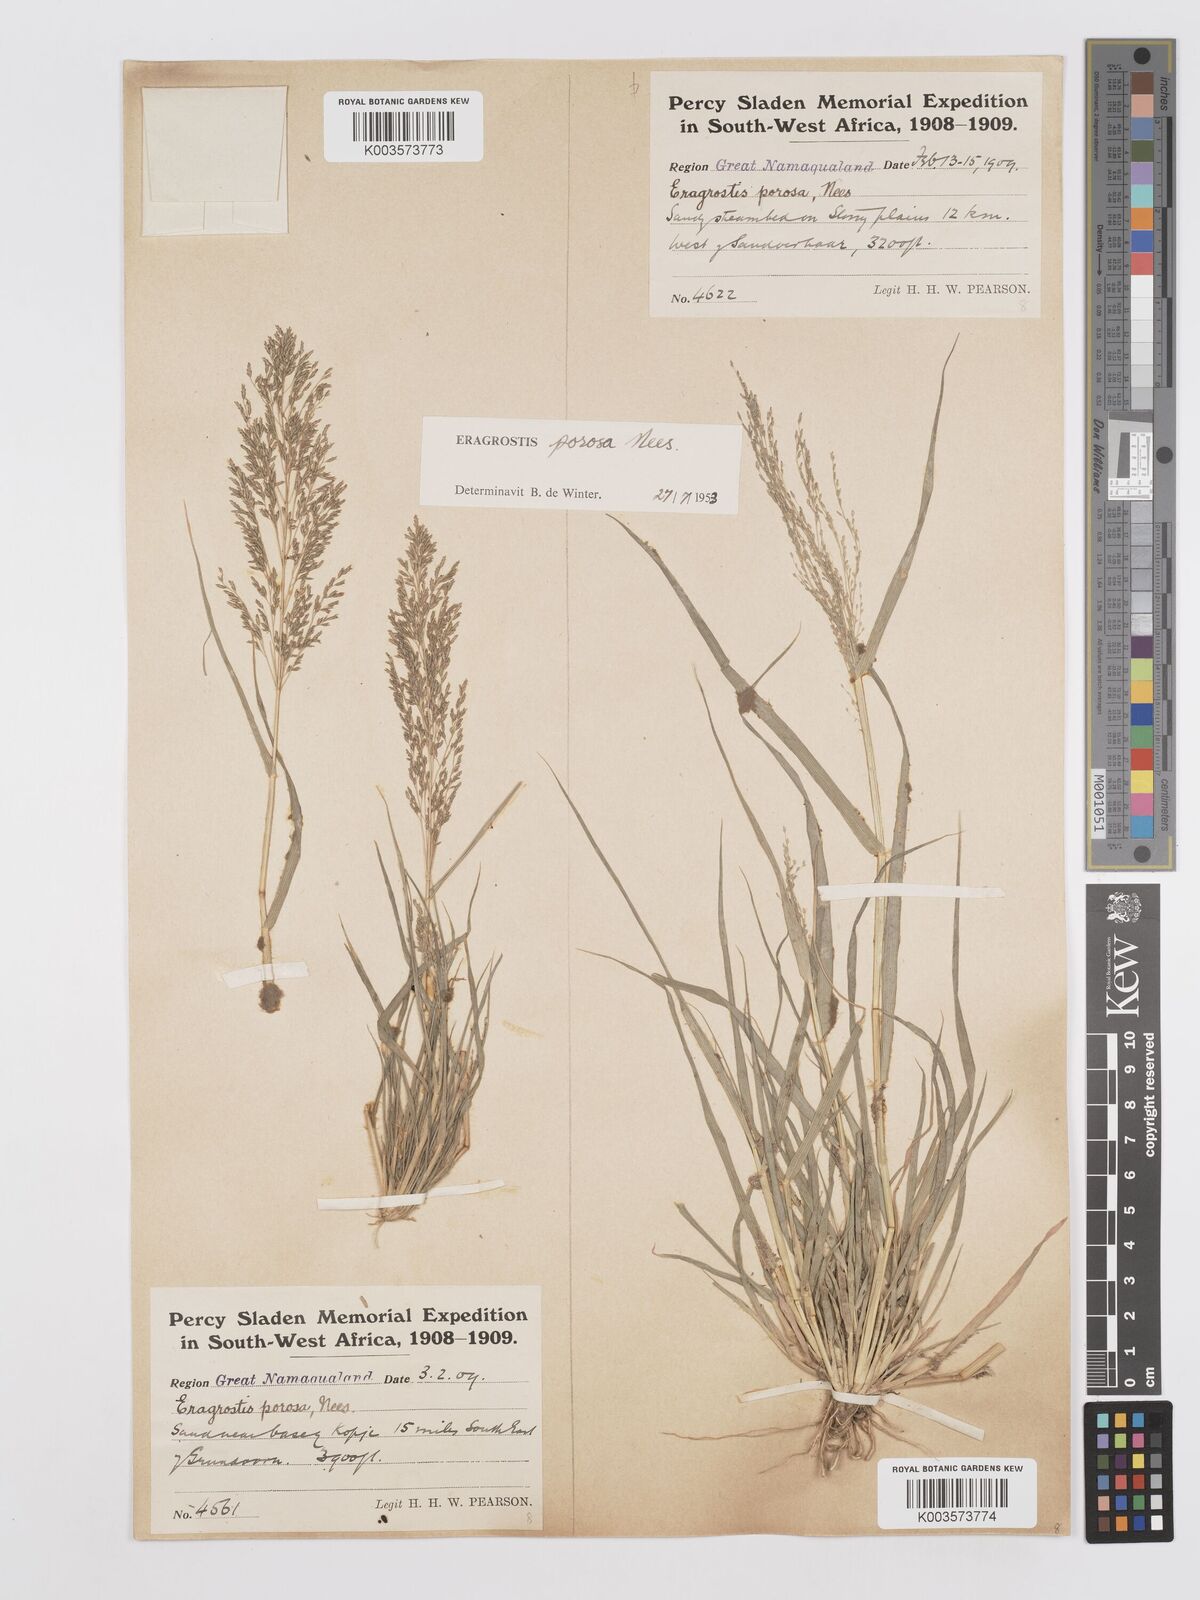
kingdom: Plantae
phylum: Tracheophyta
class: Liliopsida
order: Poales
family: Poaceae
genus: Eragrostis
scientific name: Eragrostis porosa
